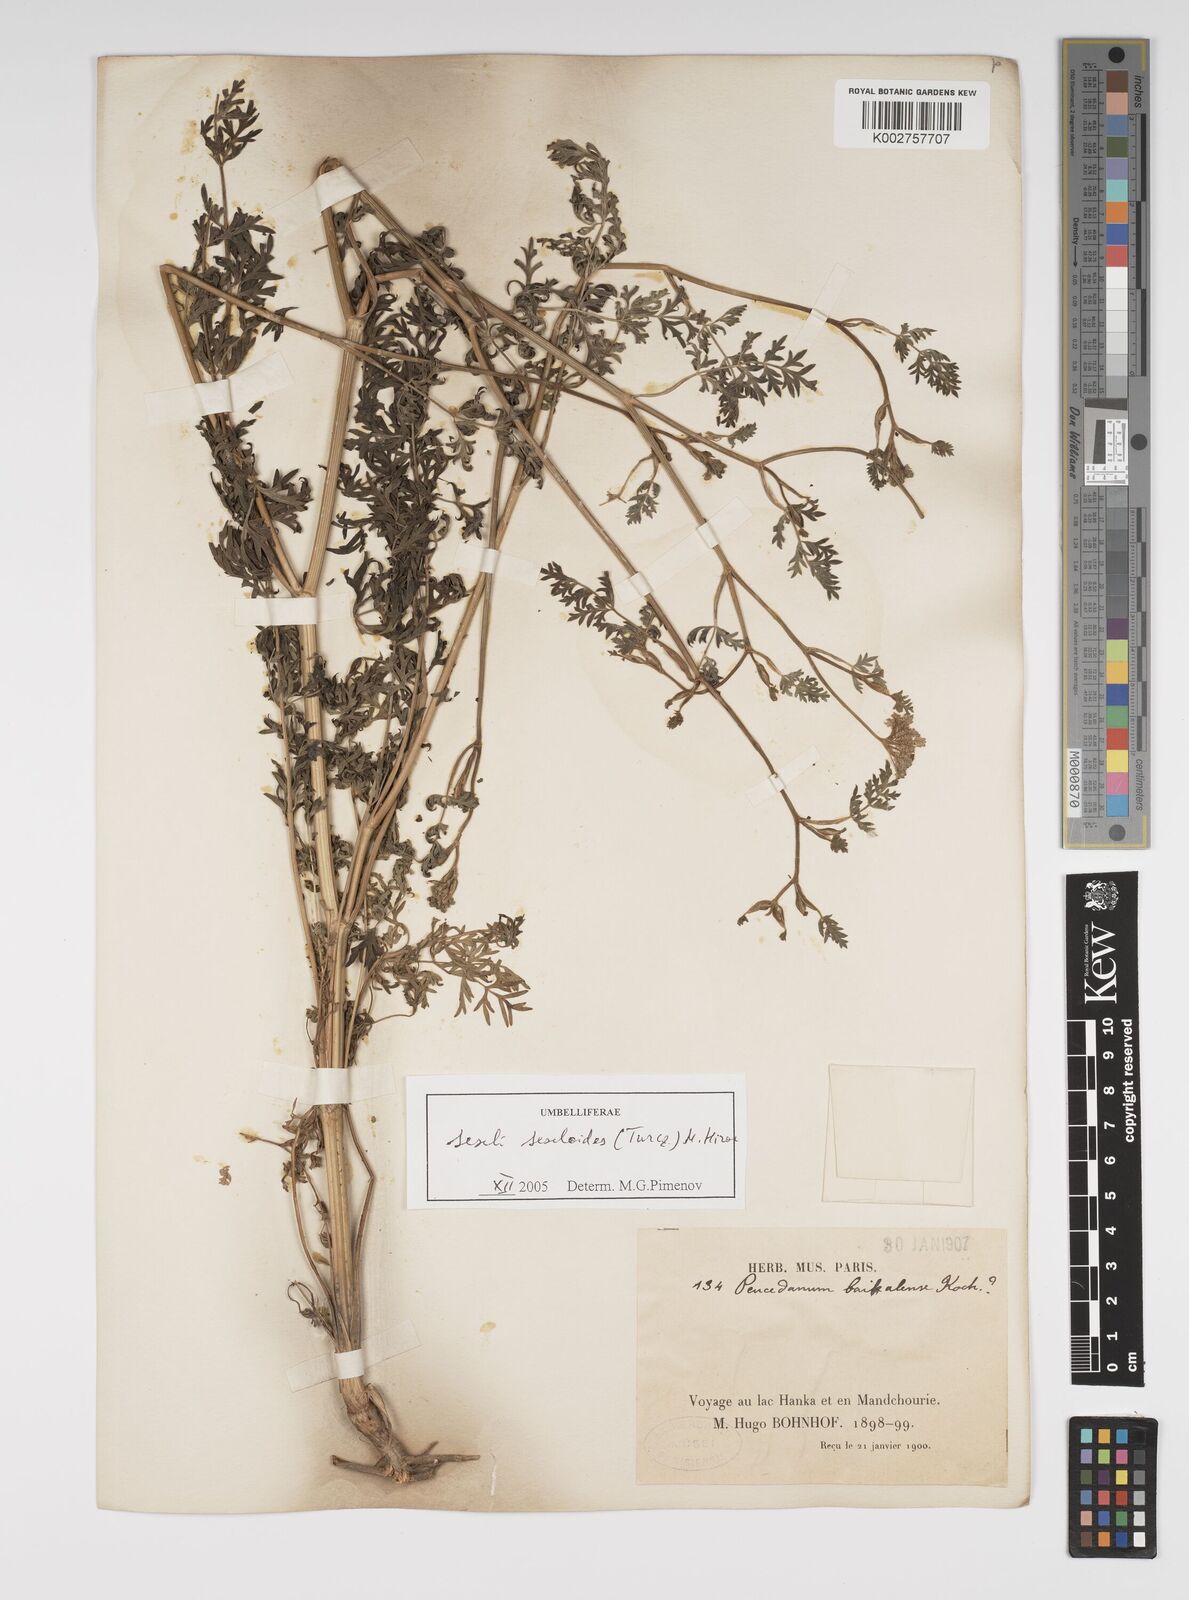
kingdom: Plantae
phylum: Tracheophyta
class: Magnoliopsida
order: Apiales
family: Apiaceae
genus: Seseli
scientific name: Seseli seseloides
